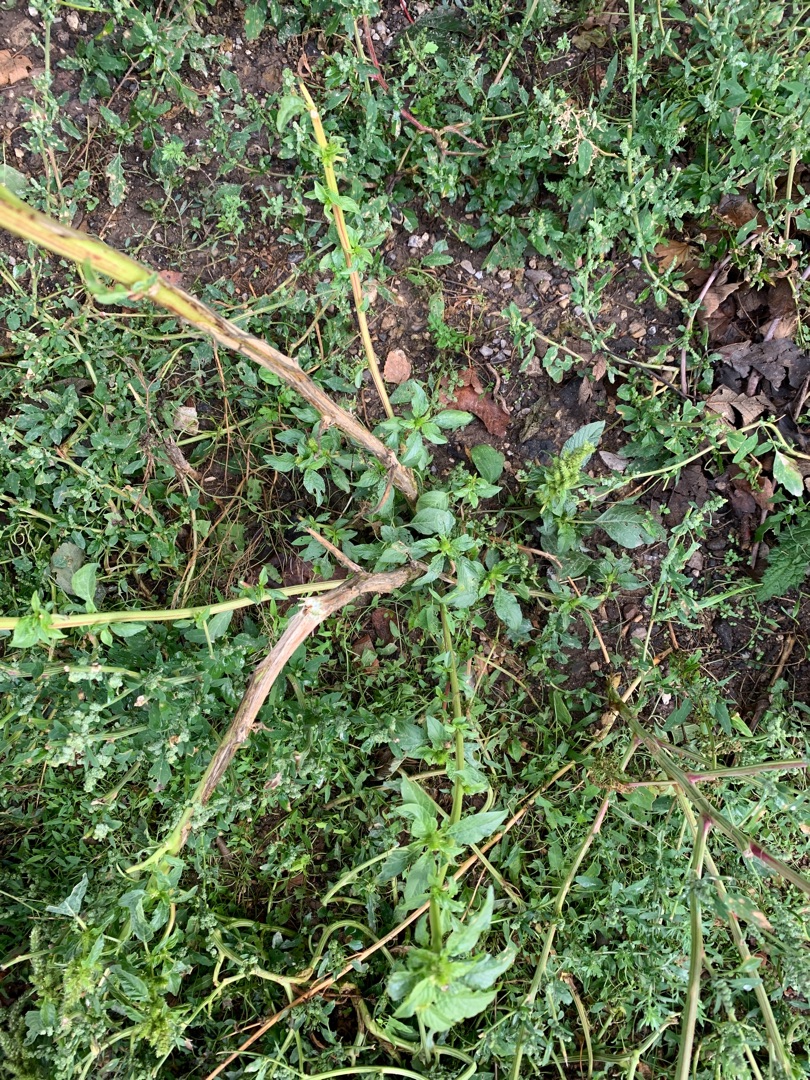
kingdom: Plantae
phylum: Tracheophyta
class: Magnoliopsida
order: Caryophyllales
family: Amaranthaceae
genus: Amaranthus
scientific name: Amaranthus
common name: Amarantslægten
